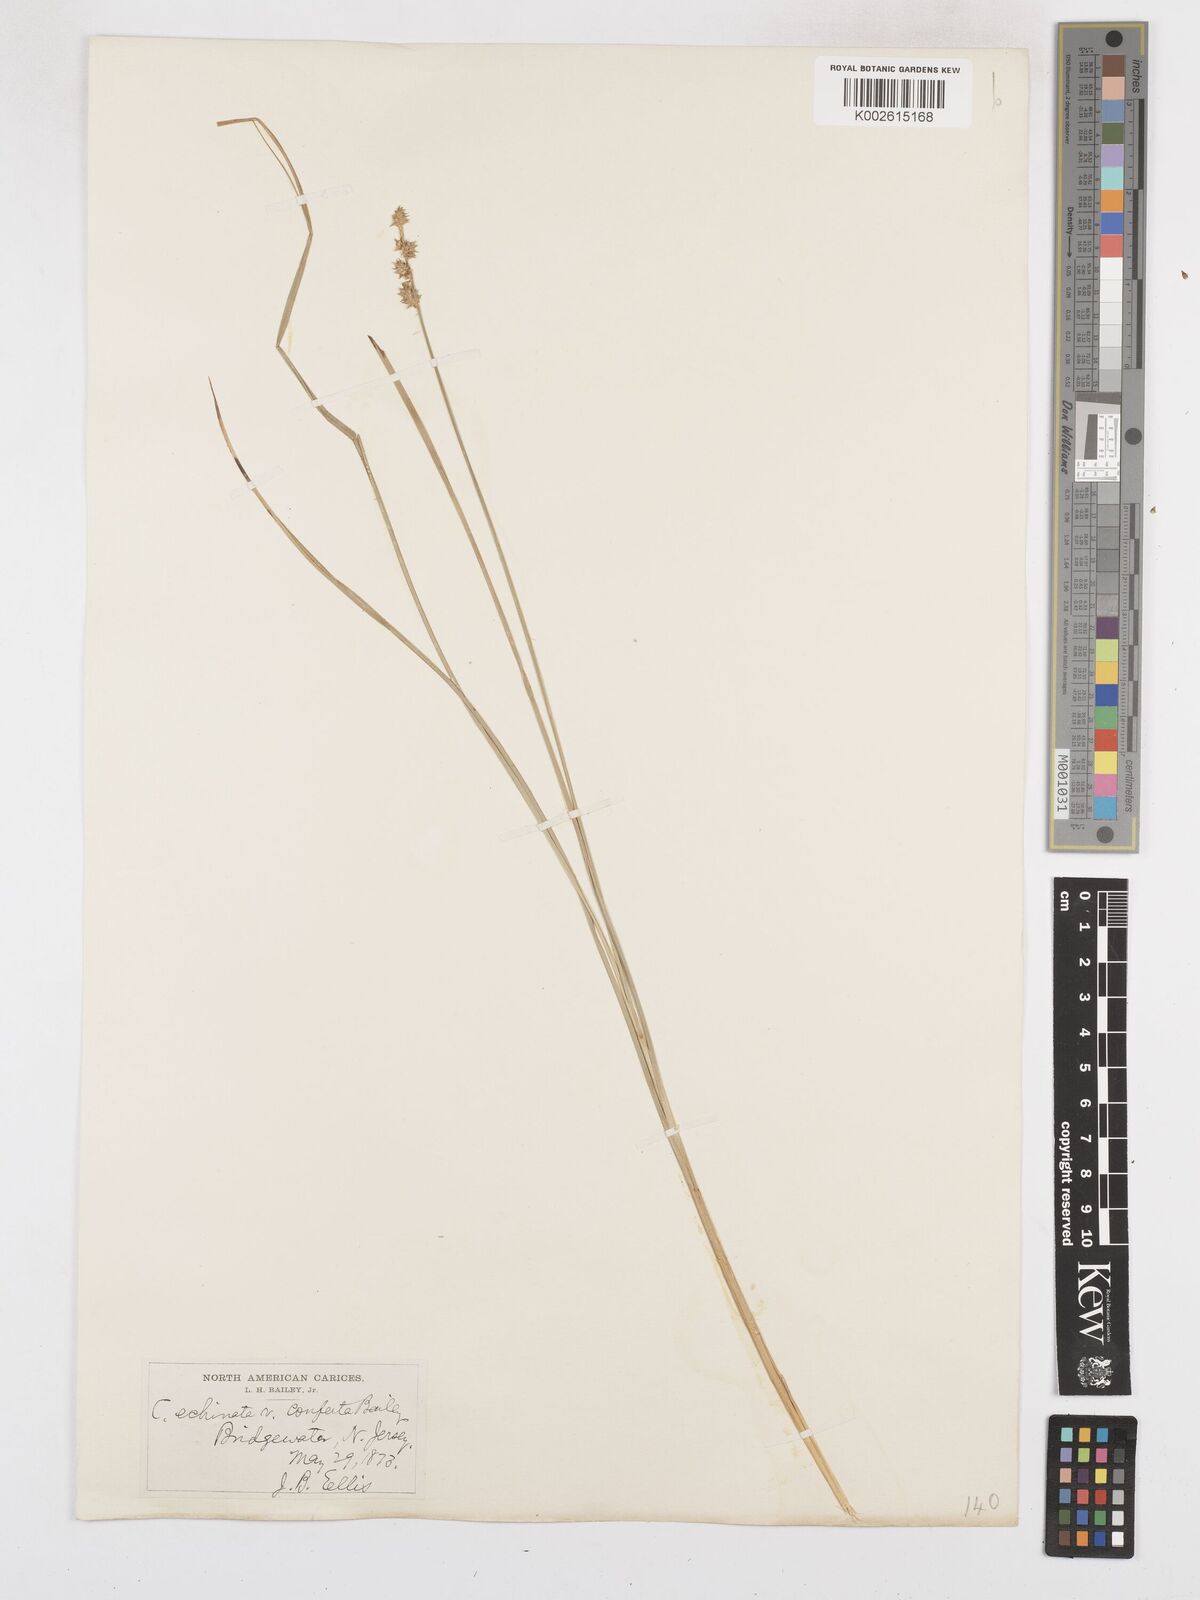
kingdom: Plantae
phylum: Tracheophyta
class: Liliopsida
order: Poales
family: Cyperaceae
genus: Carex
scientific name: Carex echinata
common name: Star sedge
